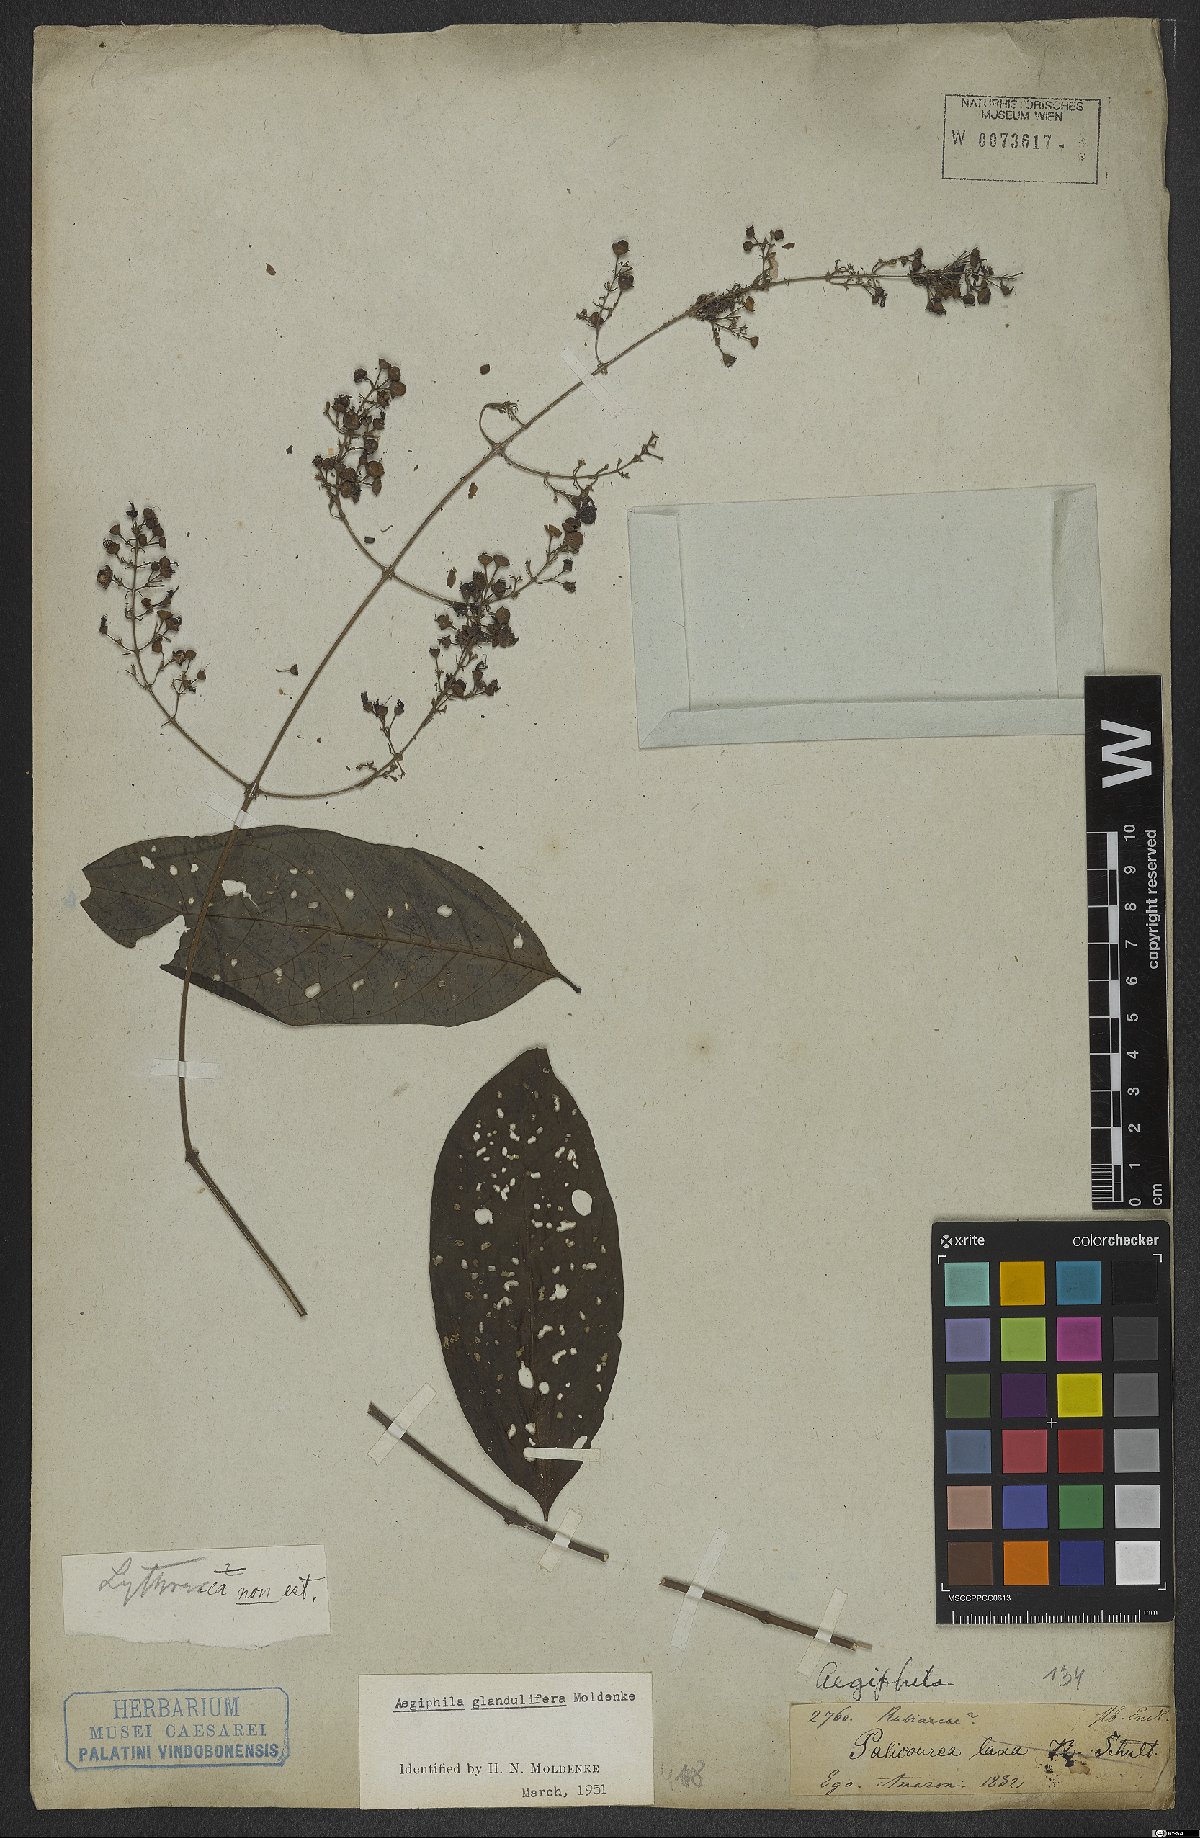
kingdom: Plantae
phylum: Tracheophyta
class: Magnoliopsida
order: Lamiales
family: Lamiaceae
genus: Aegiphila
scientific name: Aegiphila panamensis
